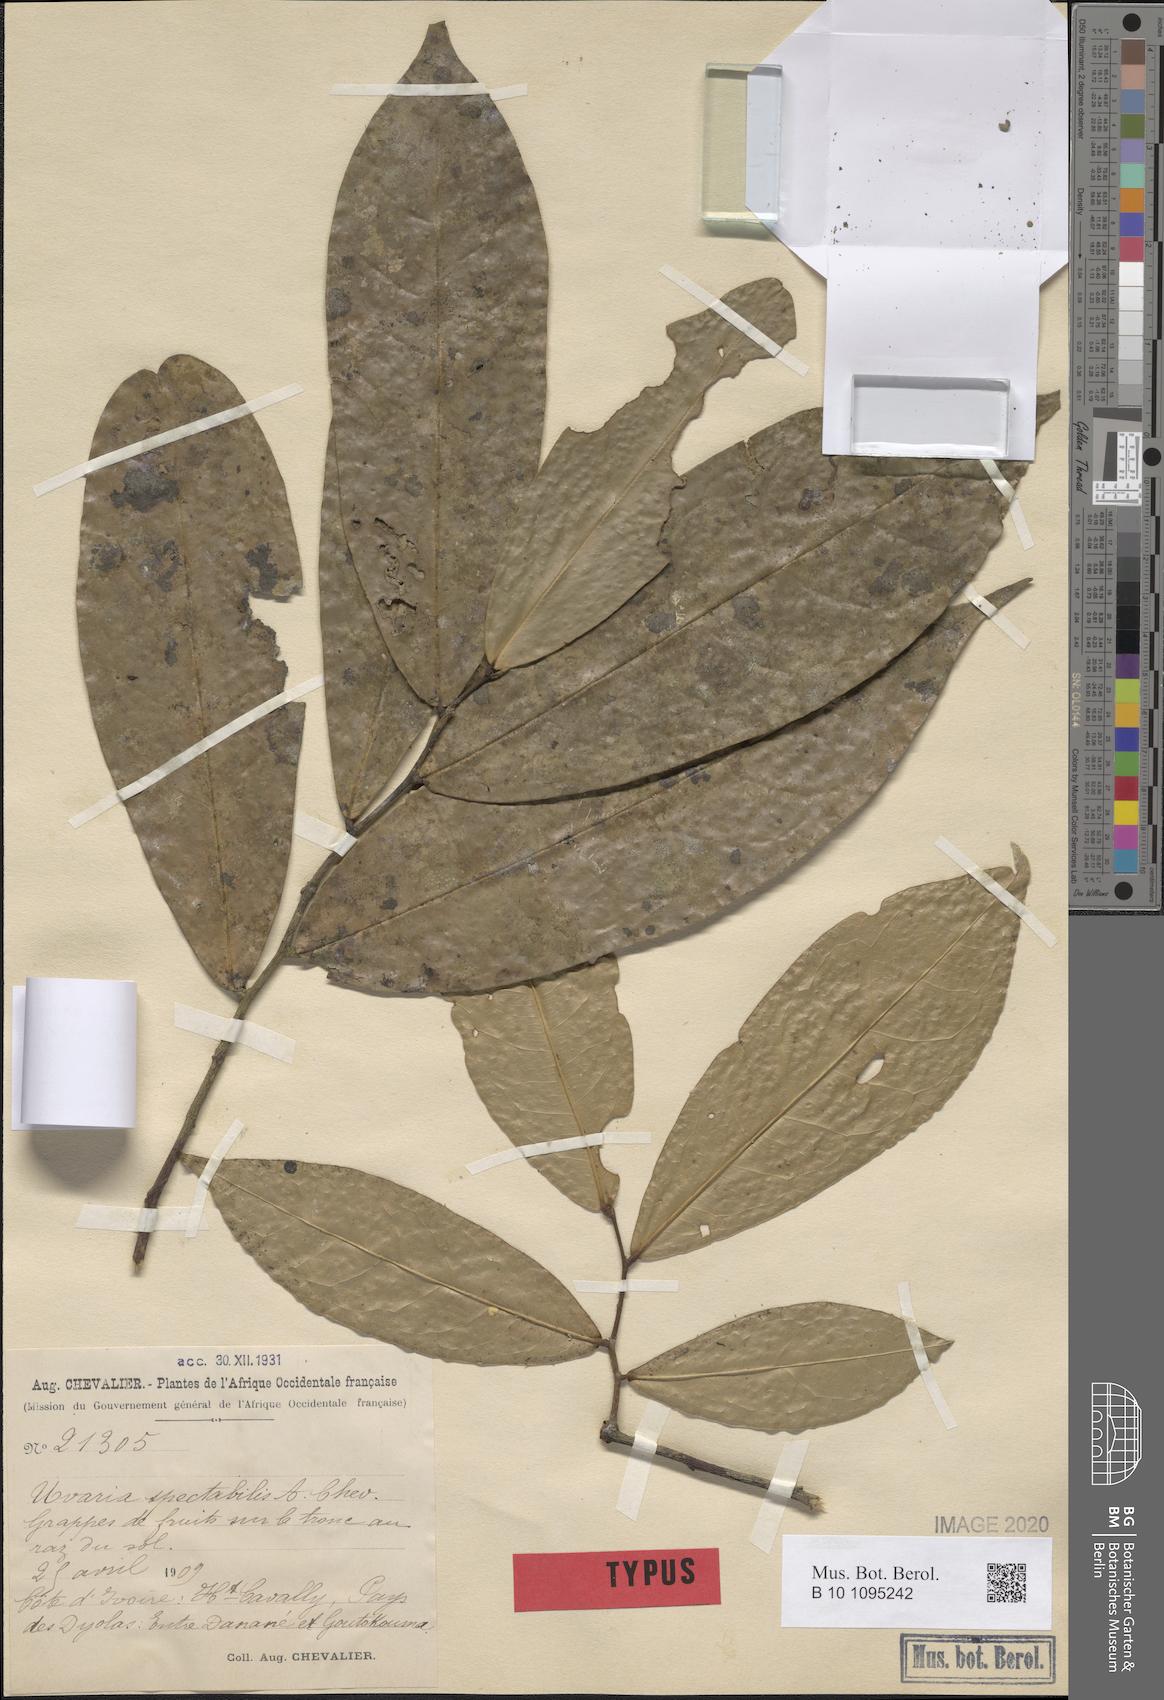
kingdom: Plantae
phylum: Tracheophyta
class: Magnoliopsida
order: Magnoliales
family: Annonaceae
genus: Uvariopsis
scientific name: Uvariopsis guineensis
